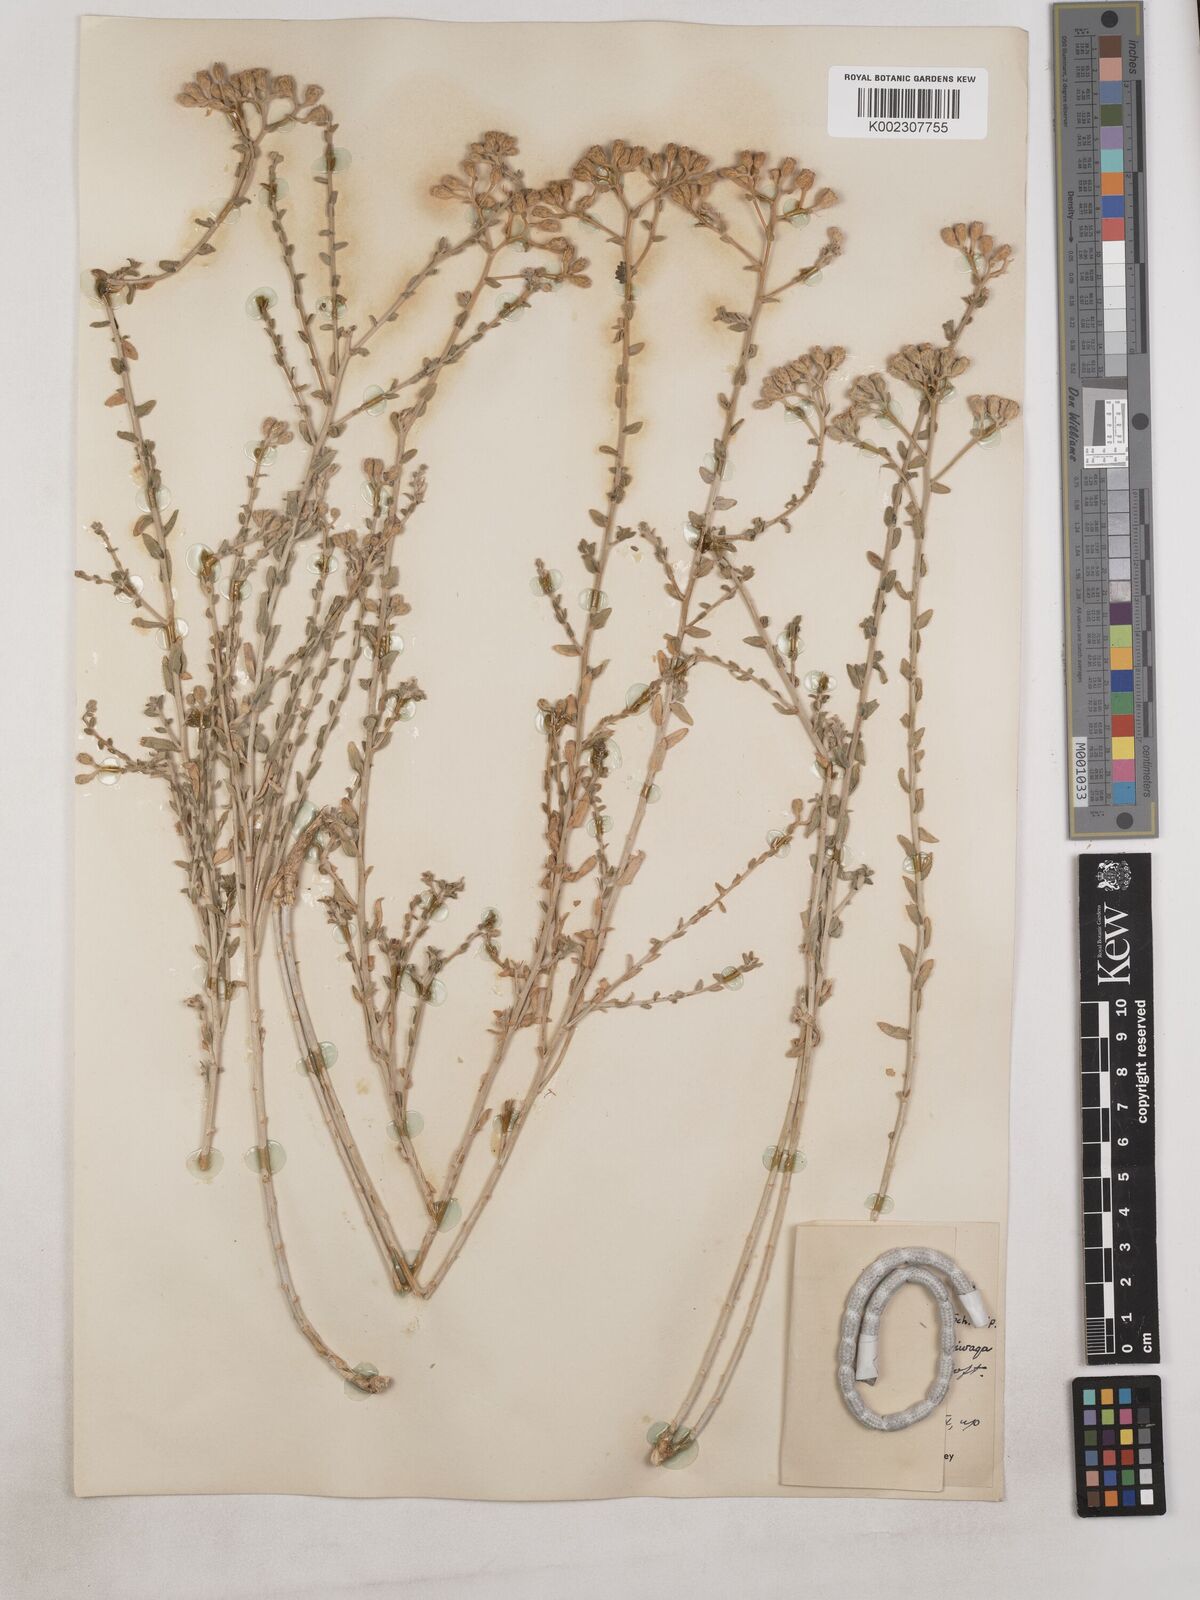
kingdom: Plantae
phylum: Tracheophyta
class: Magnoliopsida
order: Asterales
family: Asteraceae
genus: Achillea
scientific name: Achillea fragrantissima
